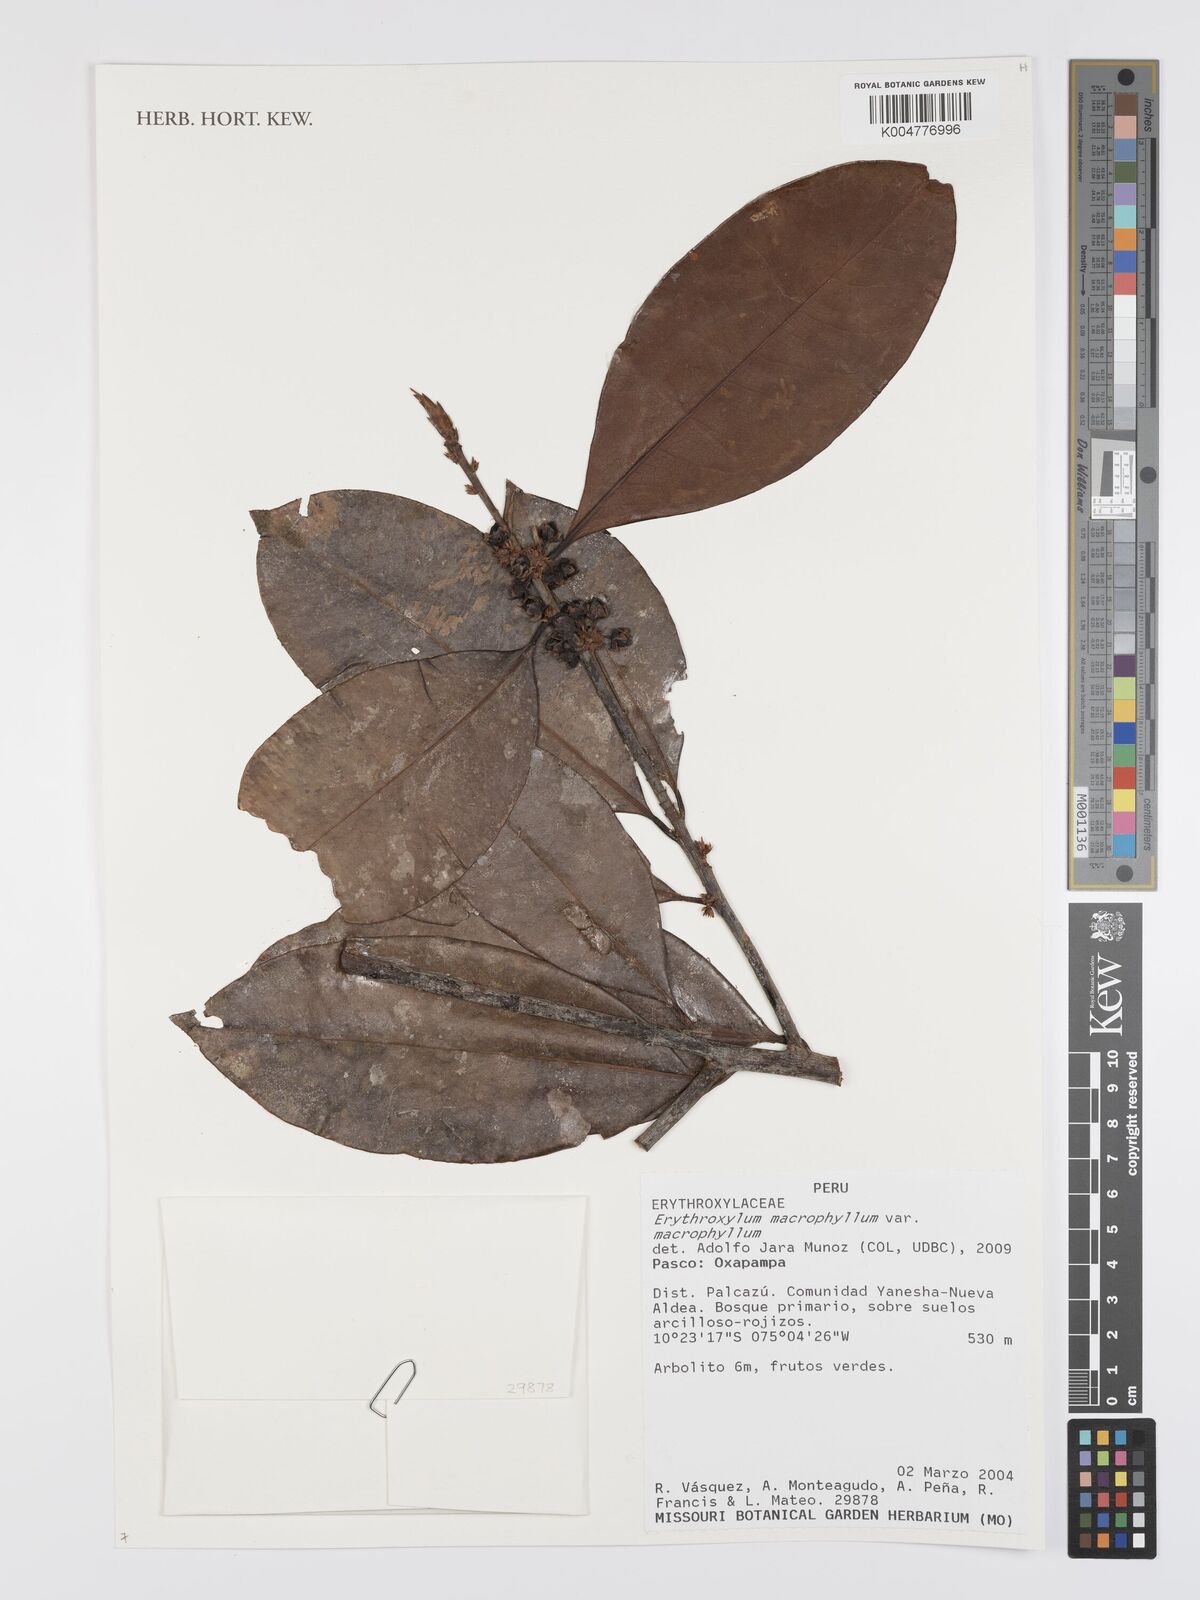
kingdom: Plantae
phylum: Tracheophyta
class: Magnoliopsida
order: Malpighiales
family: Erythroxylaceae
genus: Erythroxylum
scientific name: Erythroxylum
